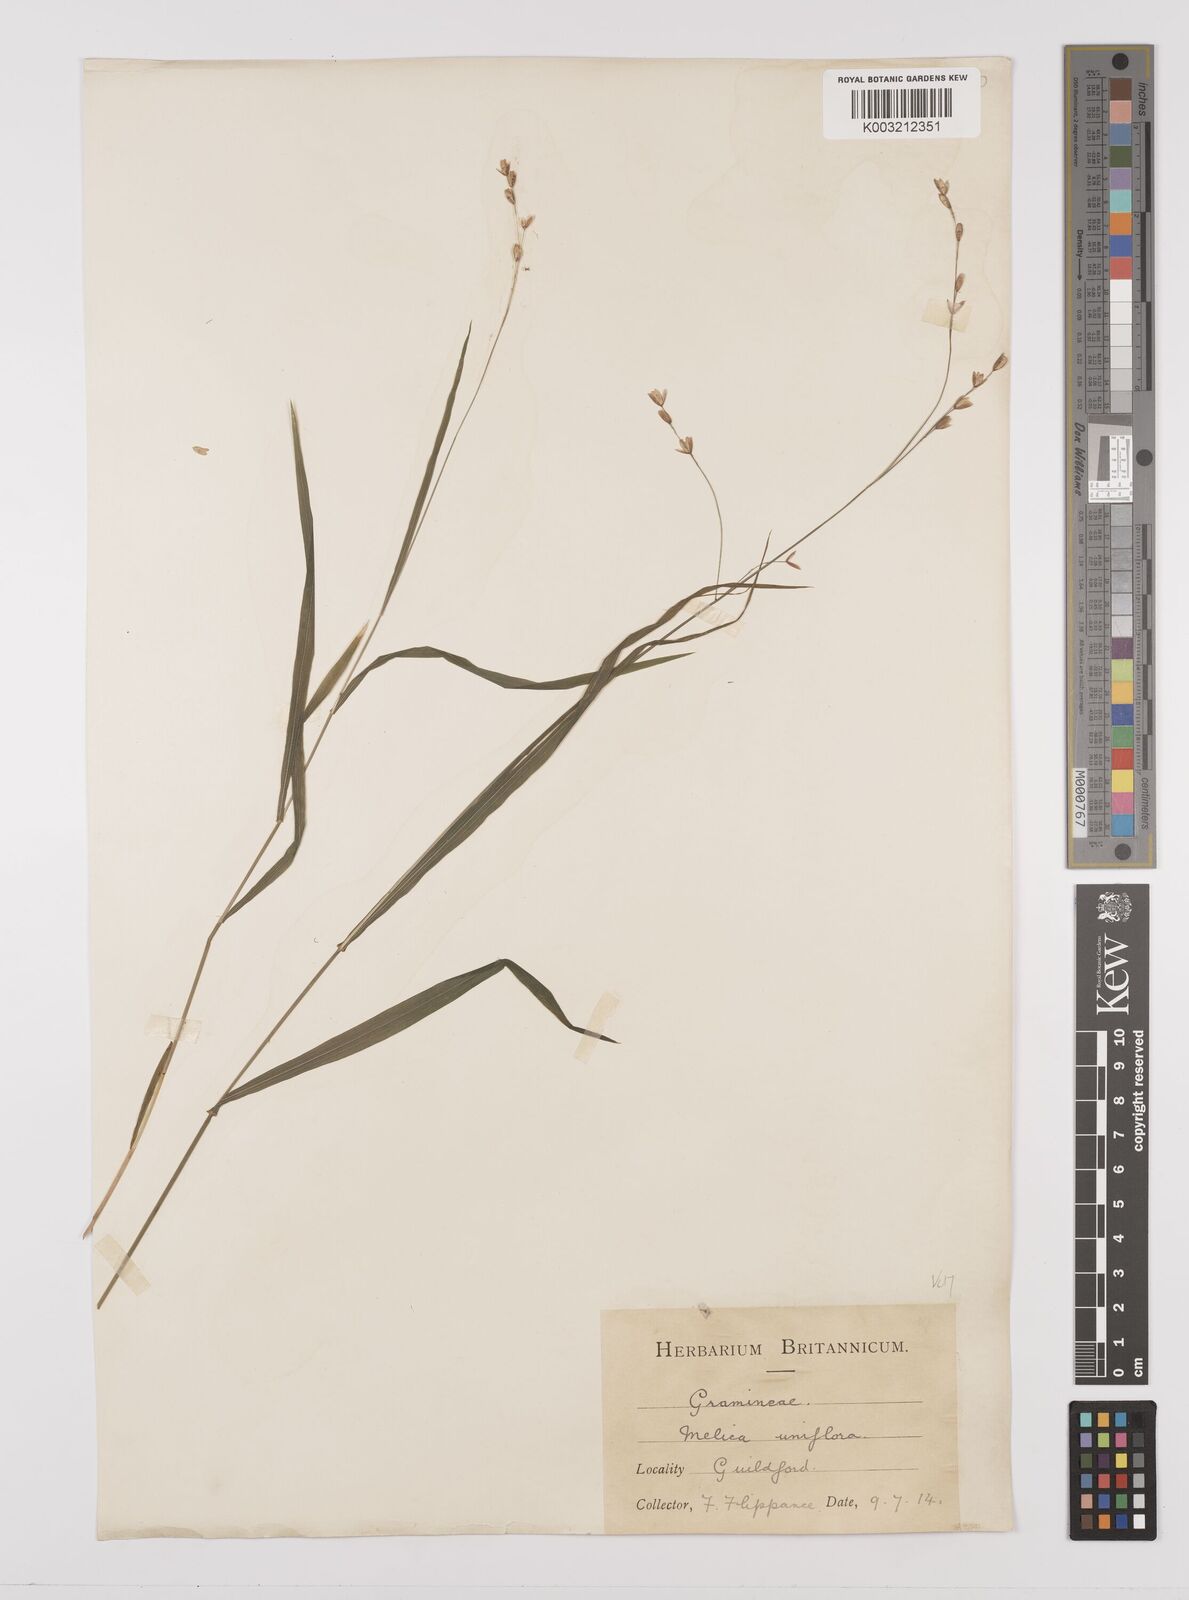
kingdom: Plantae
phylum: Tracheophyta
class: Liliopsida
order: Poales
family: Poaceae
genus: Melica
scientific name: Melica uniflora
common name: Wood melick
